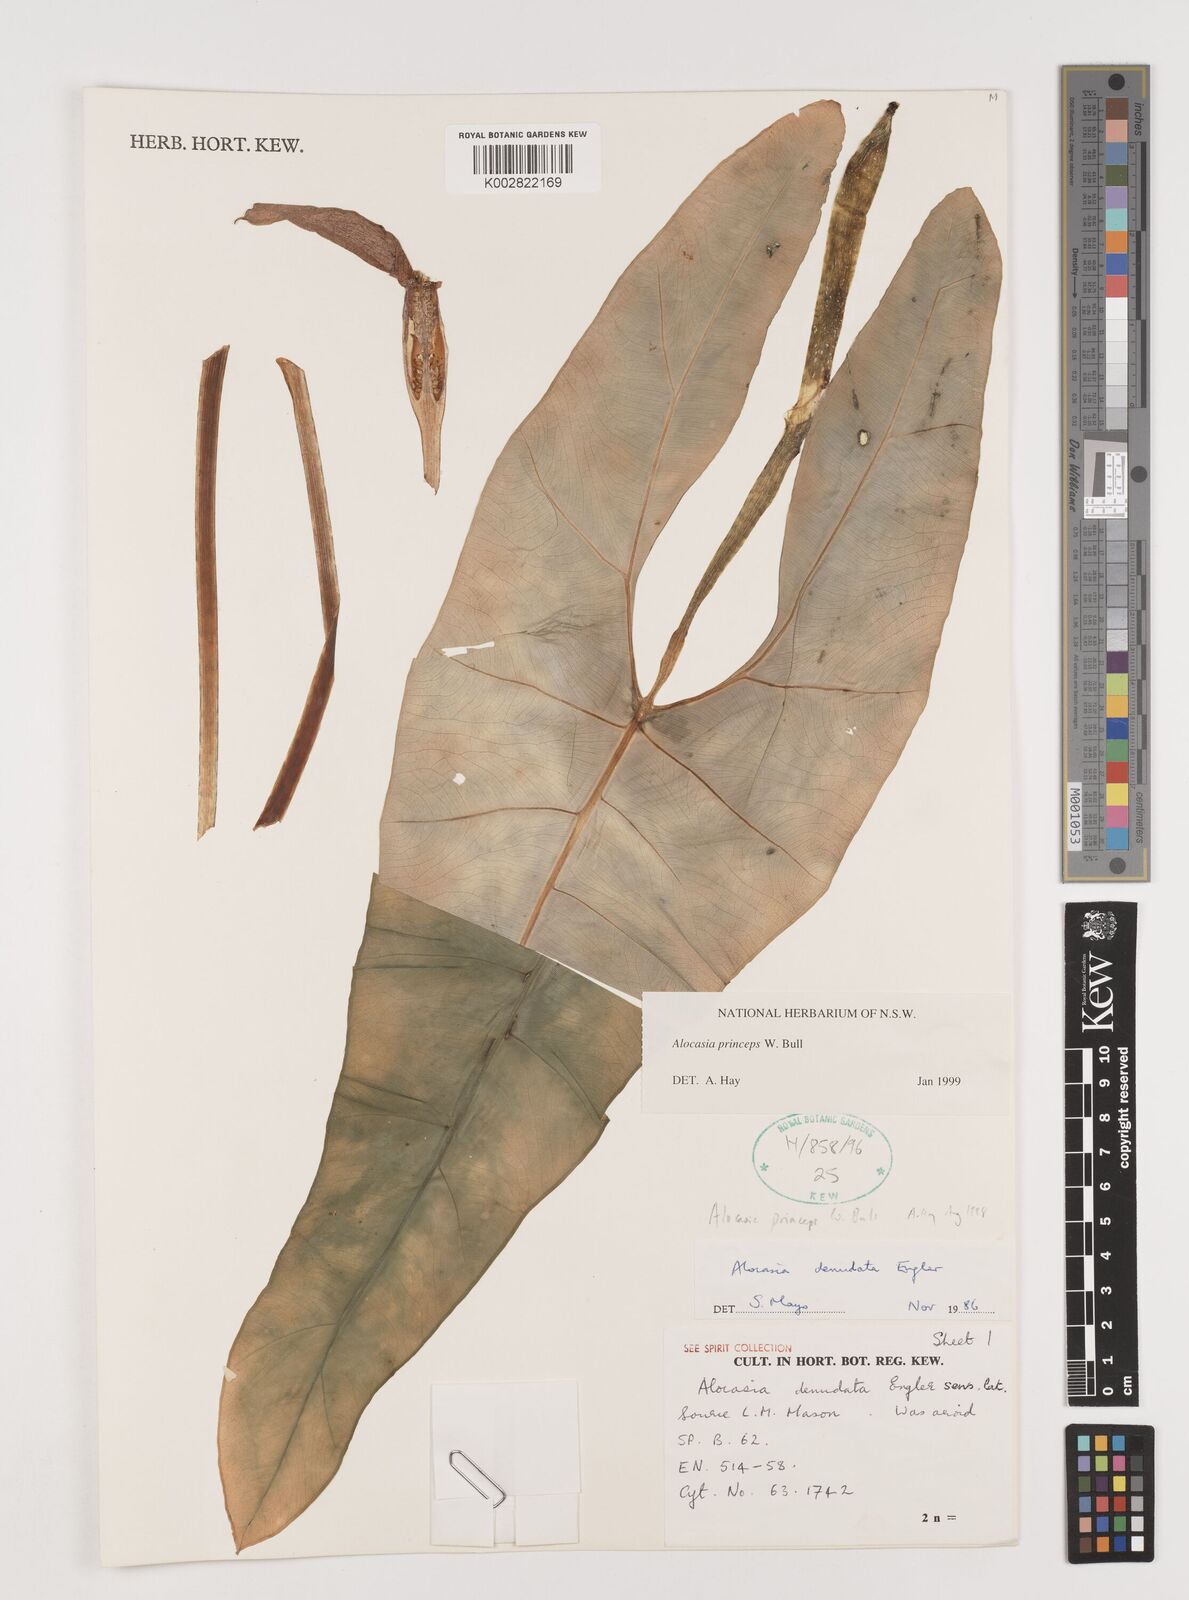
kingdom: Plantae
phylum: Tracheophyta
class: Liliopsida
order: Alismatales
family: Araceae
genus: Alocasia
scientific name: Alocasia princeps
